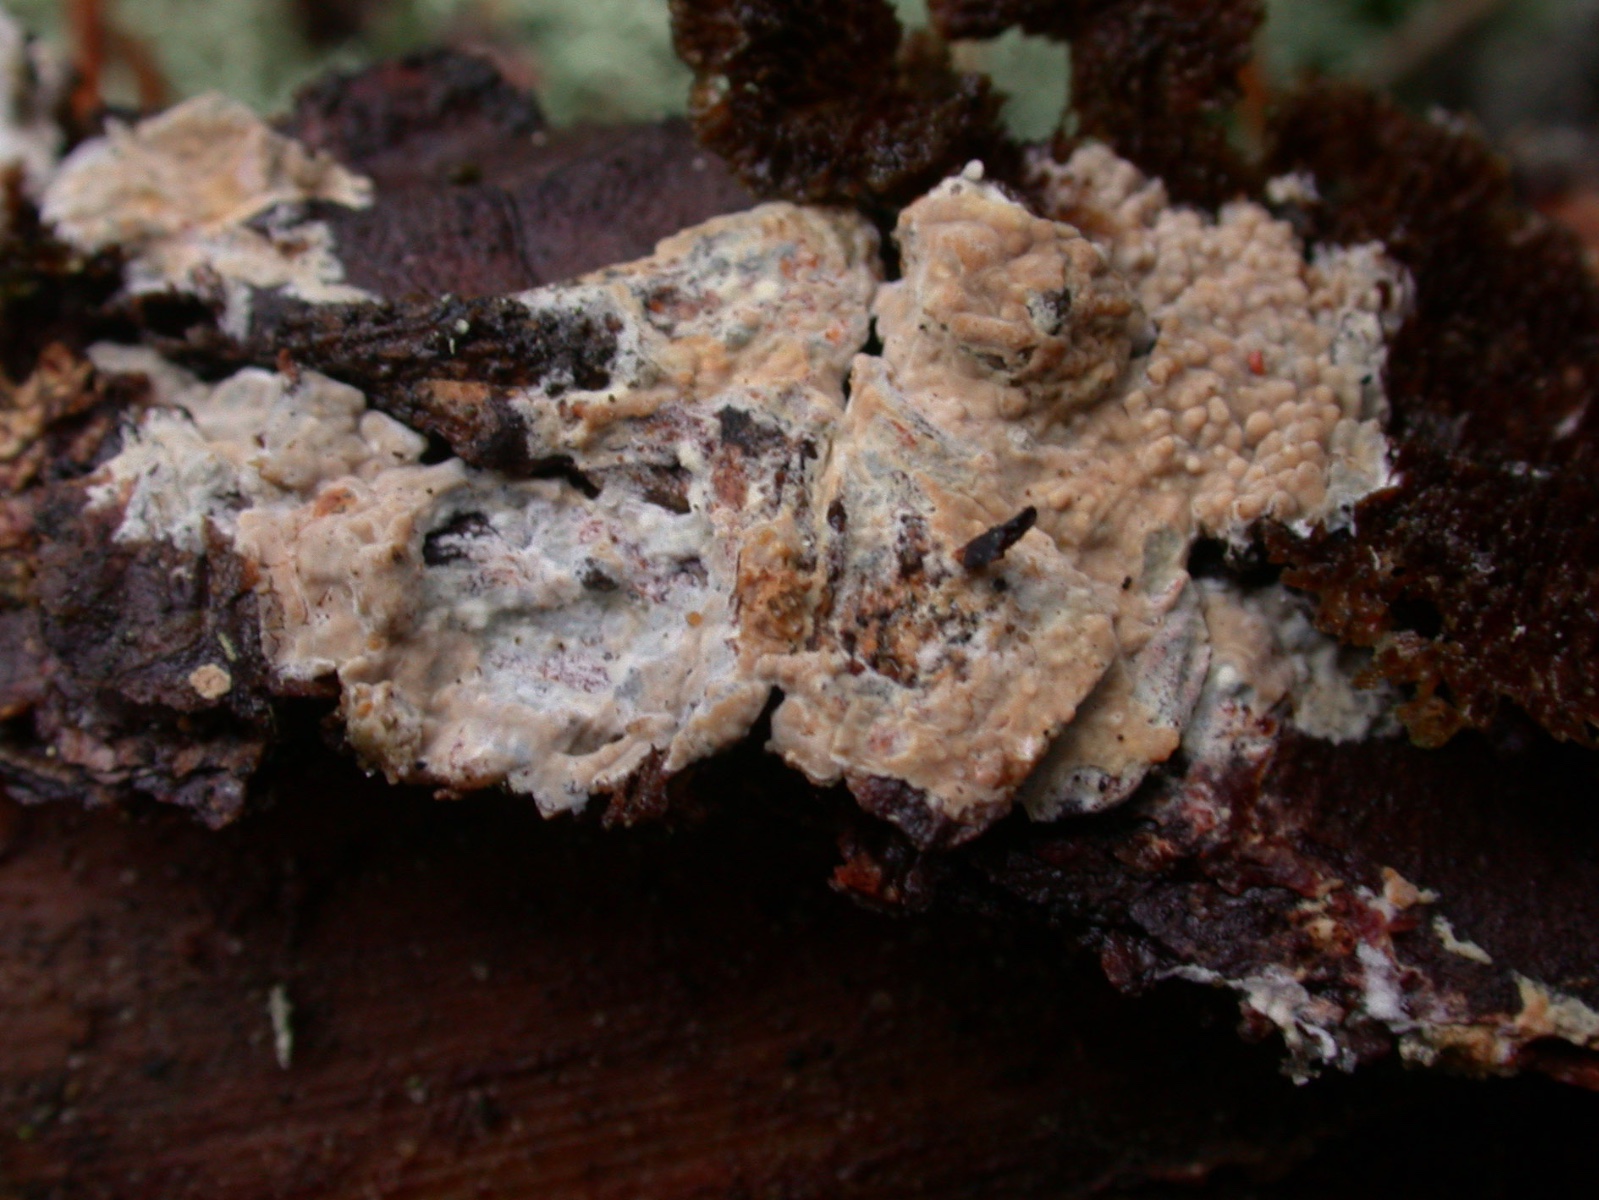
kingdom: Fungi
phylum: Basidiomycota
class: Agaricomycetes
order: Polyporales
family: Meruliaceae
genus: Phlebia
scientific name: Phlebia subserialis
